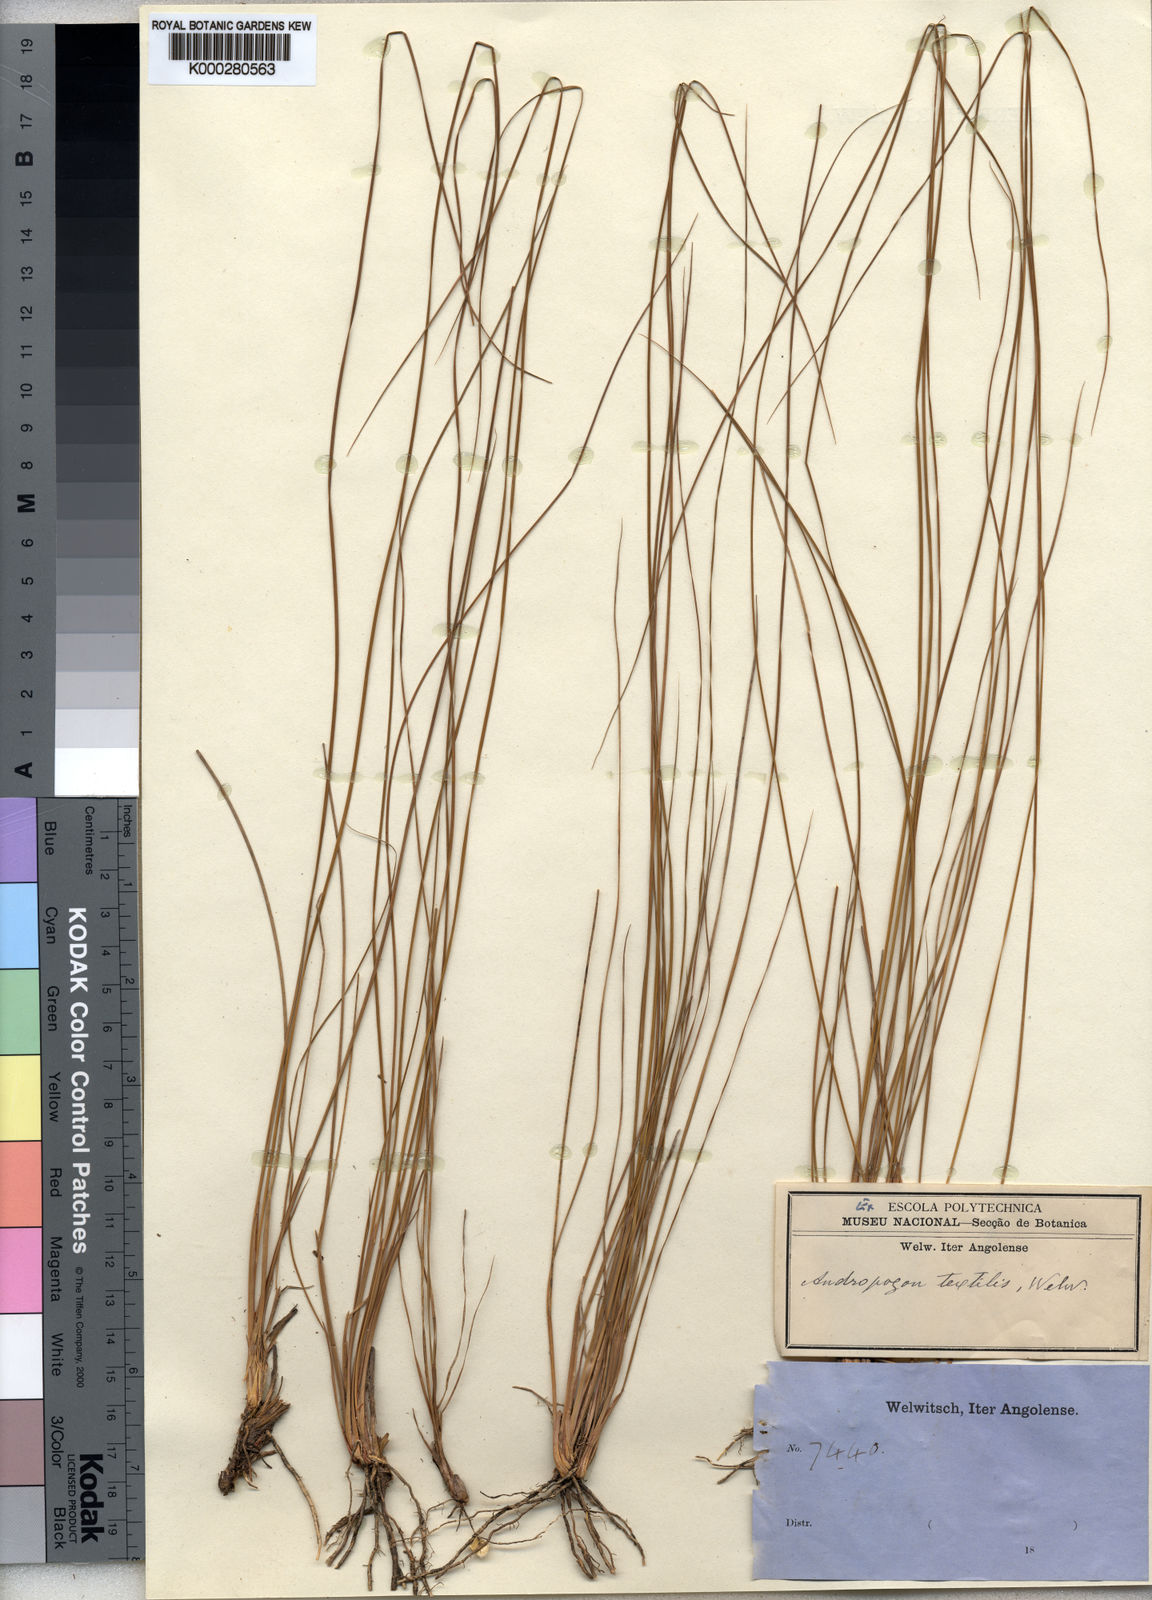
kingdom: Plantae
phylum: Tracheophyta
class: Liliopsida
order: Poales
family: Poaceae
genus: Andropogon
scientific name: Andropogon textilis
